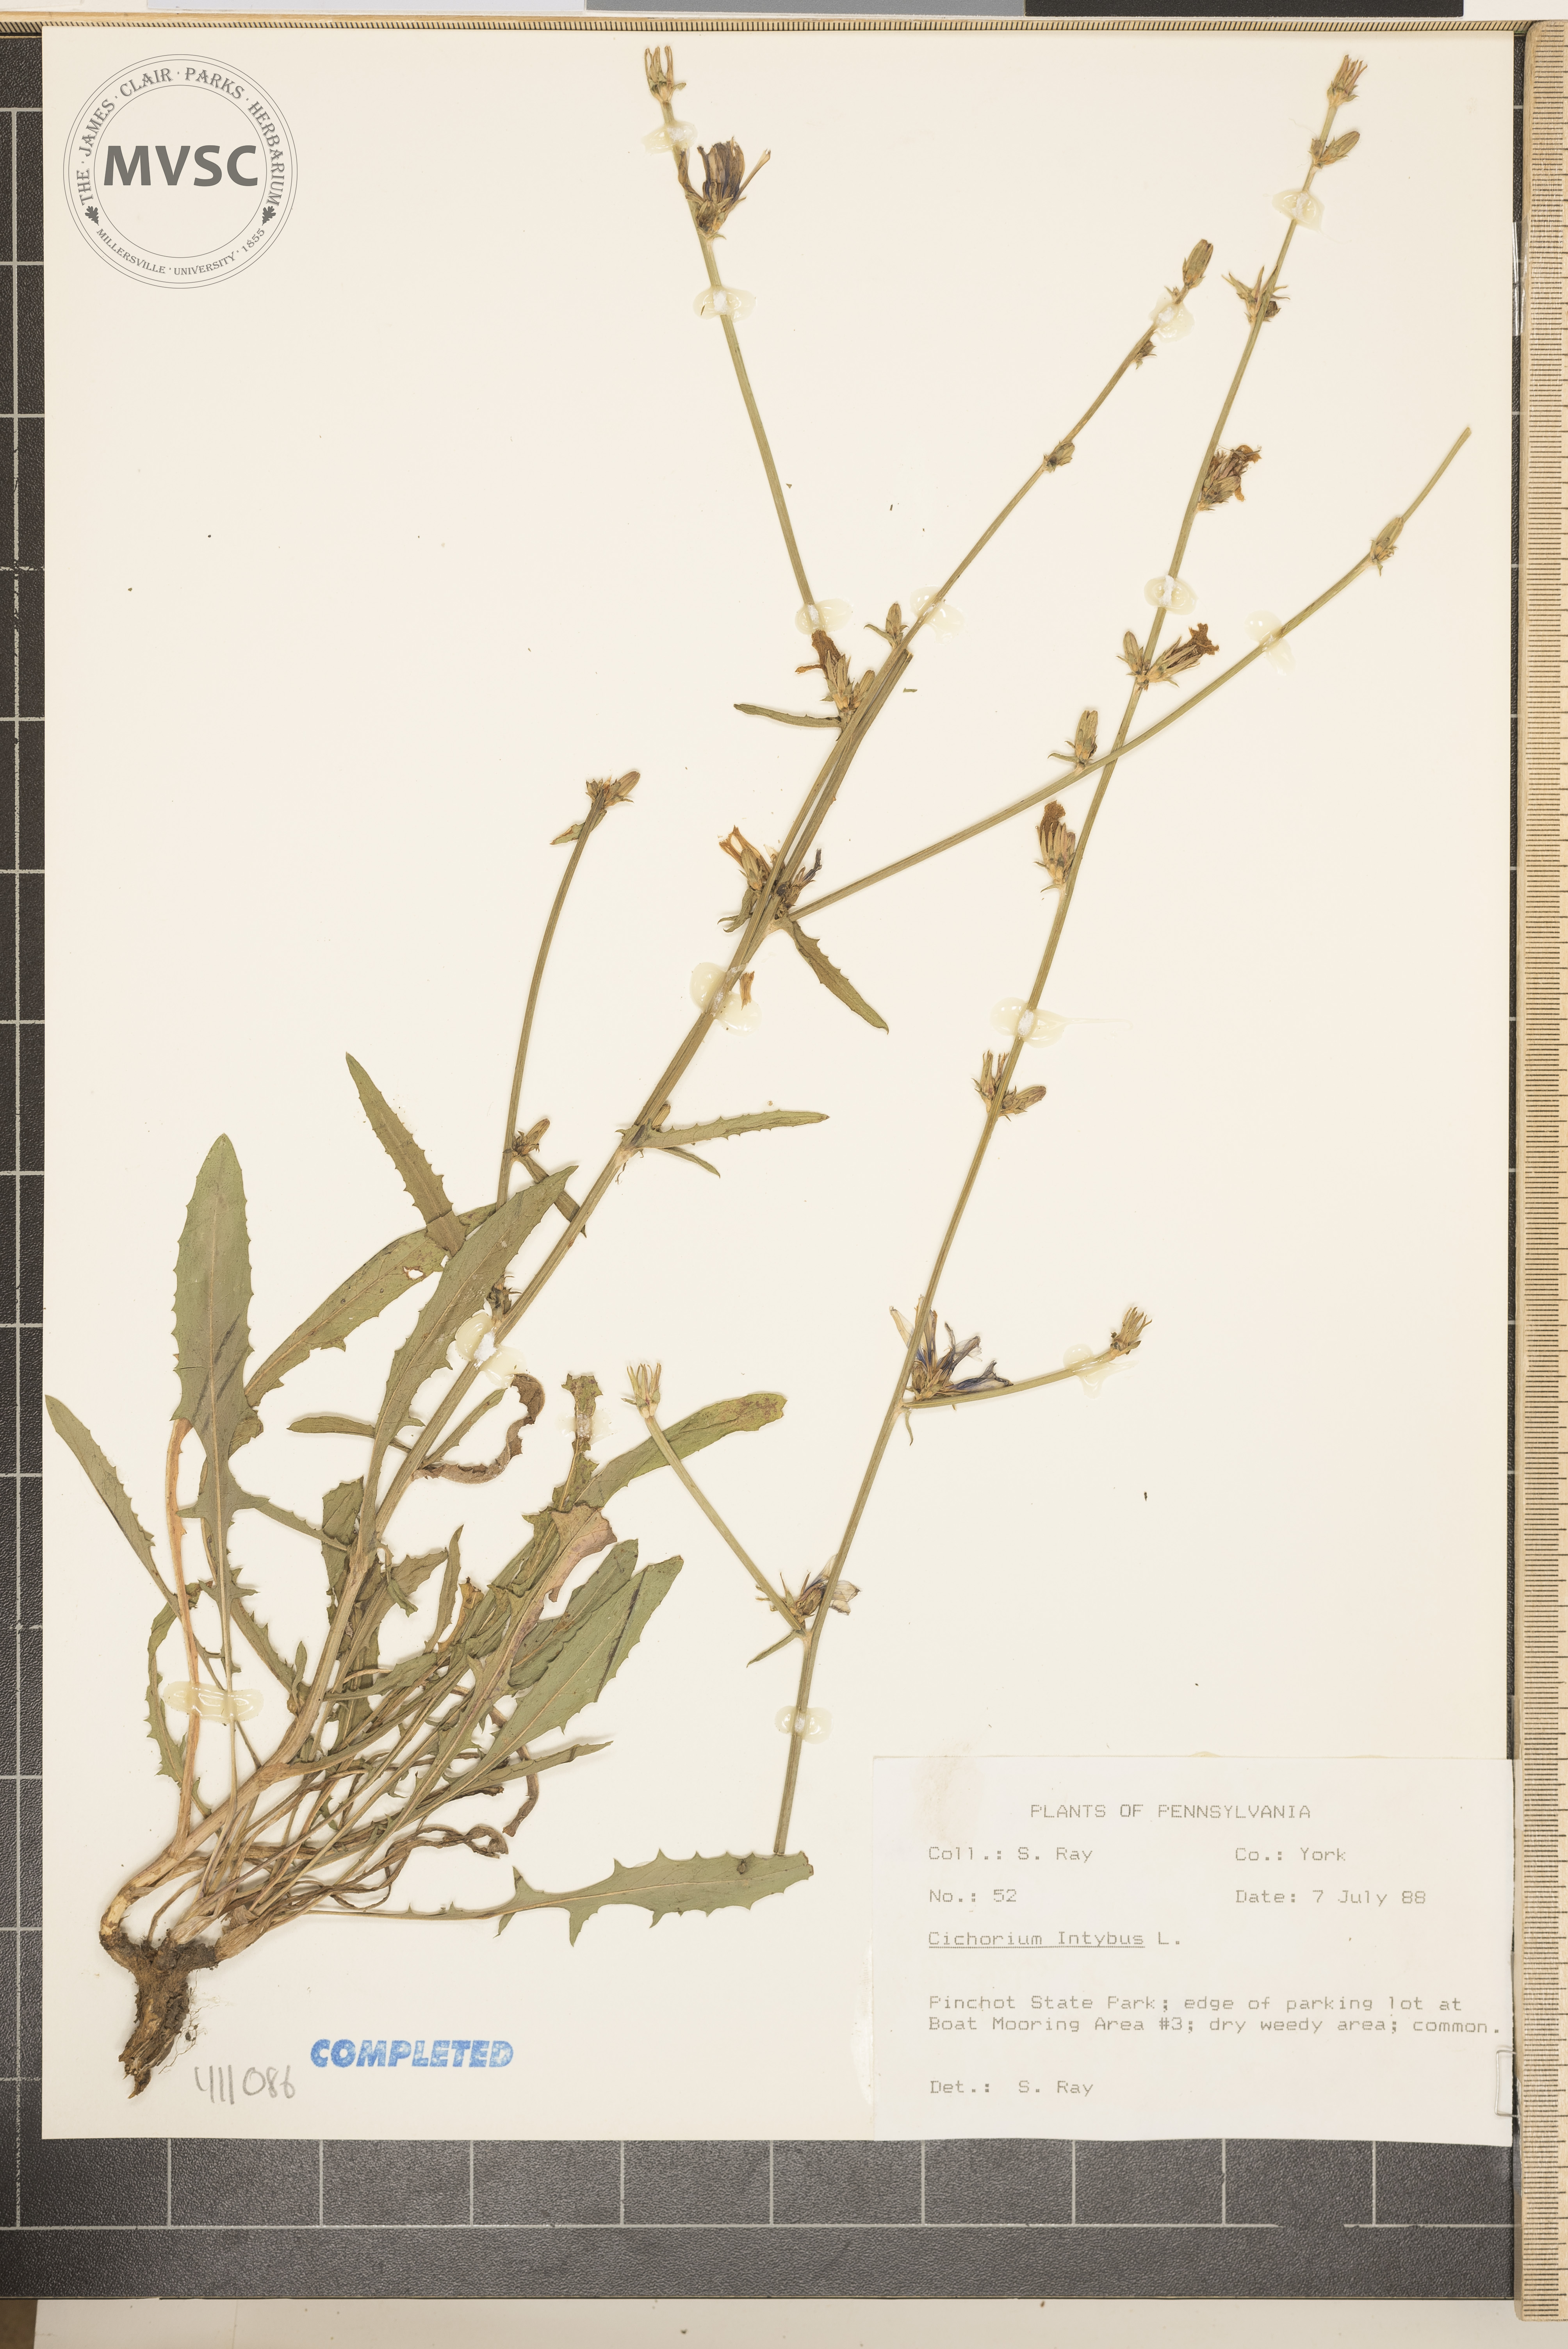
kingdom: Plantae
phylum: Tracheophyta
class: Magnoliopsida
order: Asterales
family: Asteraceae
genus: Cichorium
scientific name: Cichorium intybus
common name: Chicory
